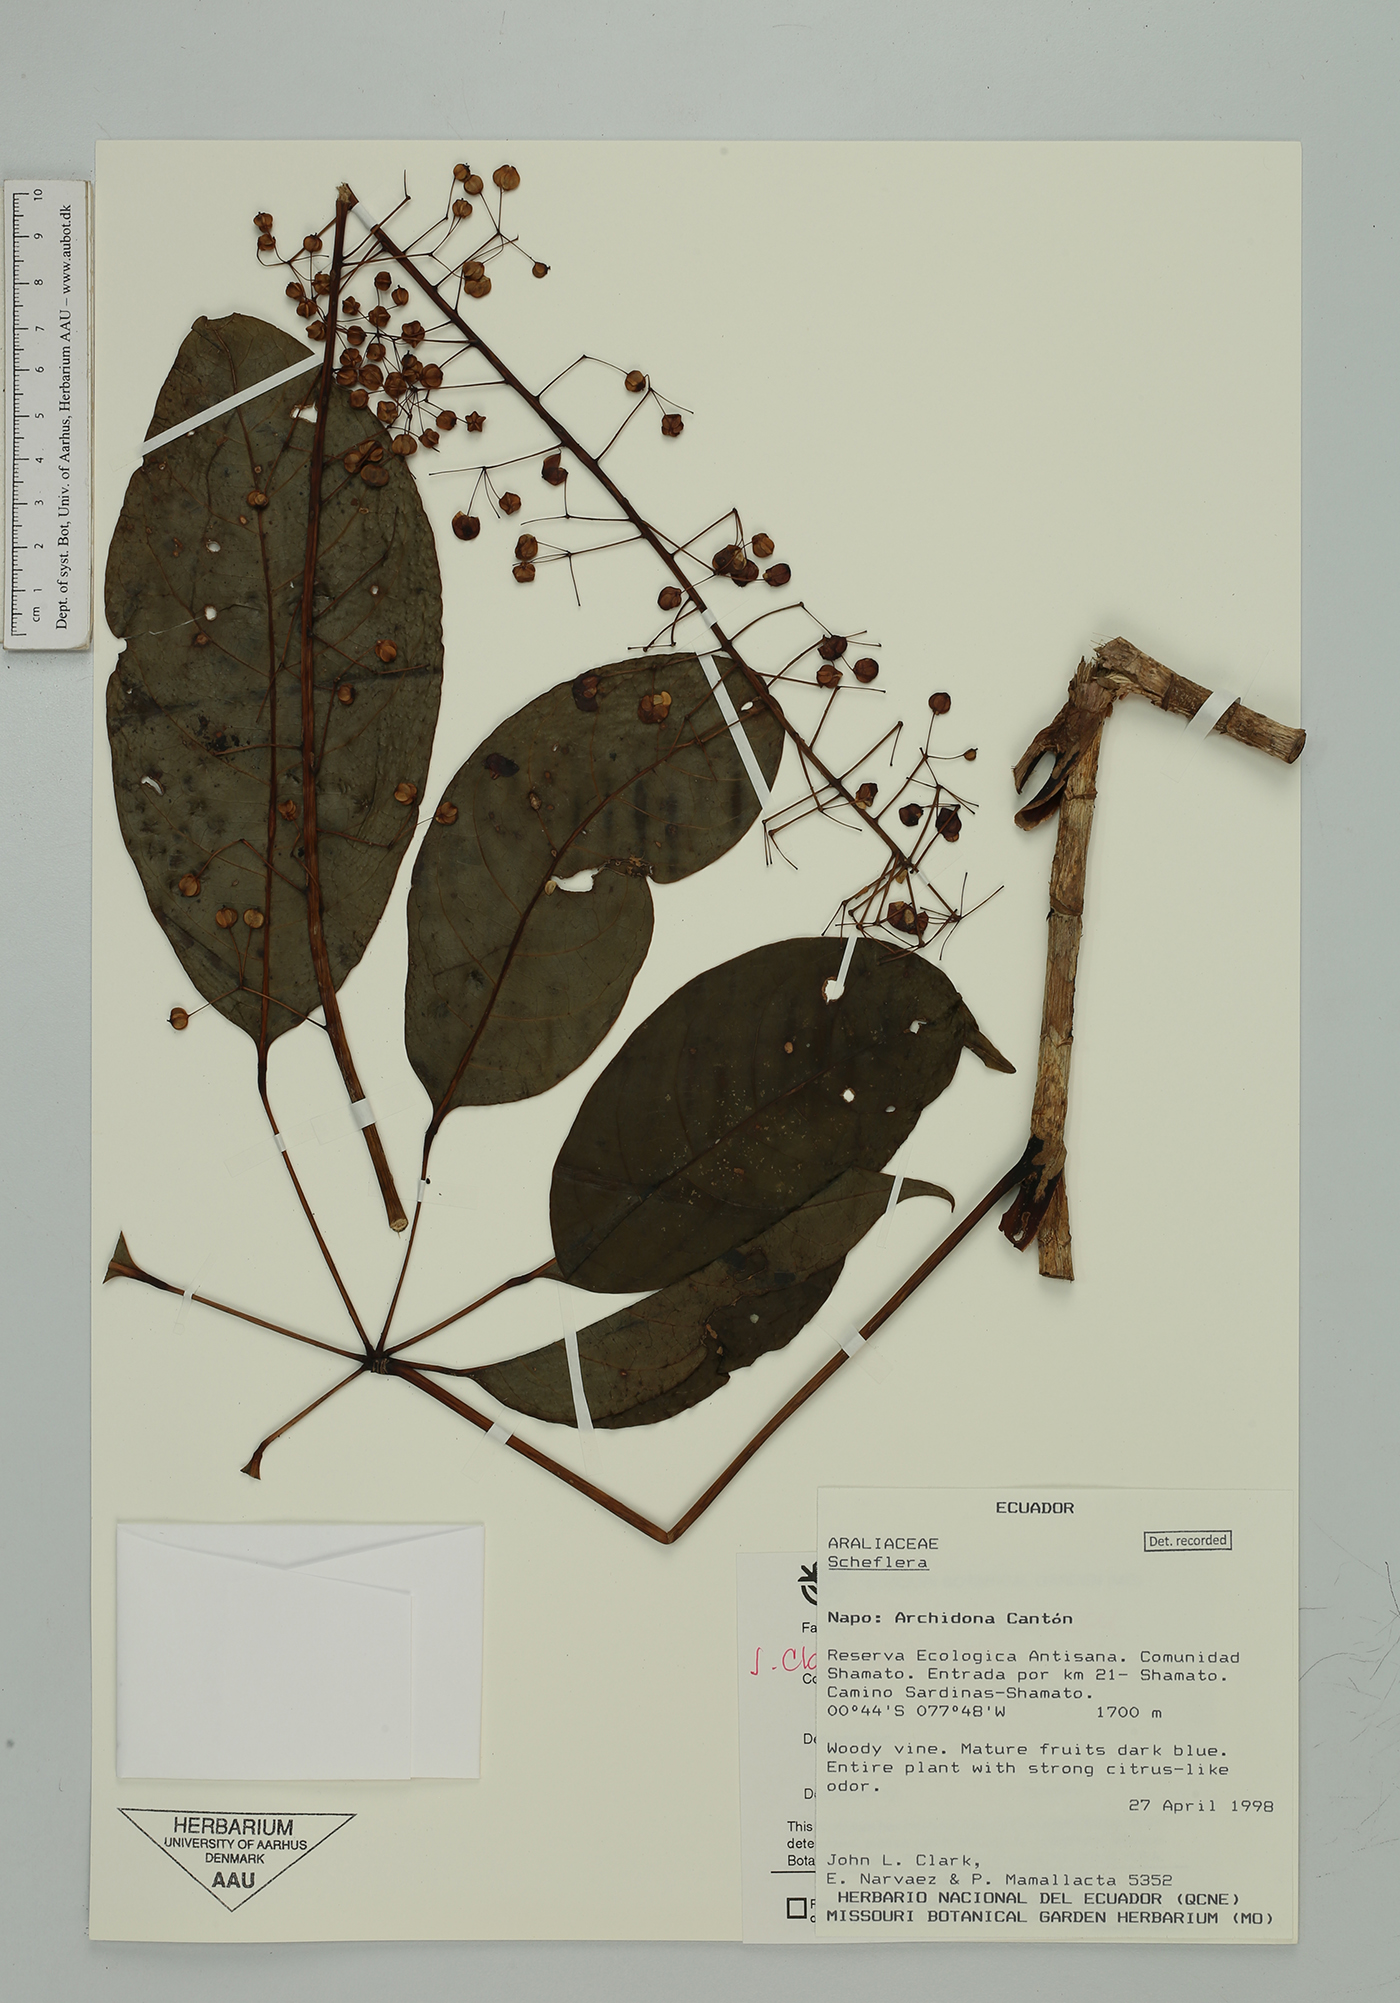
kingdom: Plantae
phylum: Tracheophyta
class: Magnoliopsida
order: Apiales
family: Araliaceae
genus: Sciodaphyllum
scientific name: Sciodaphyllum sachamatense
